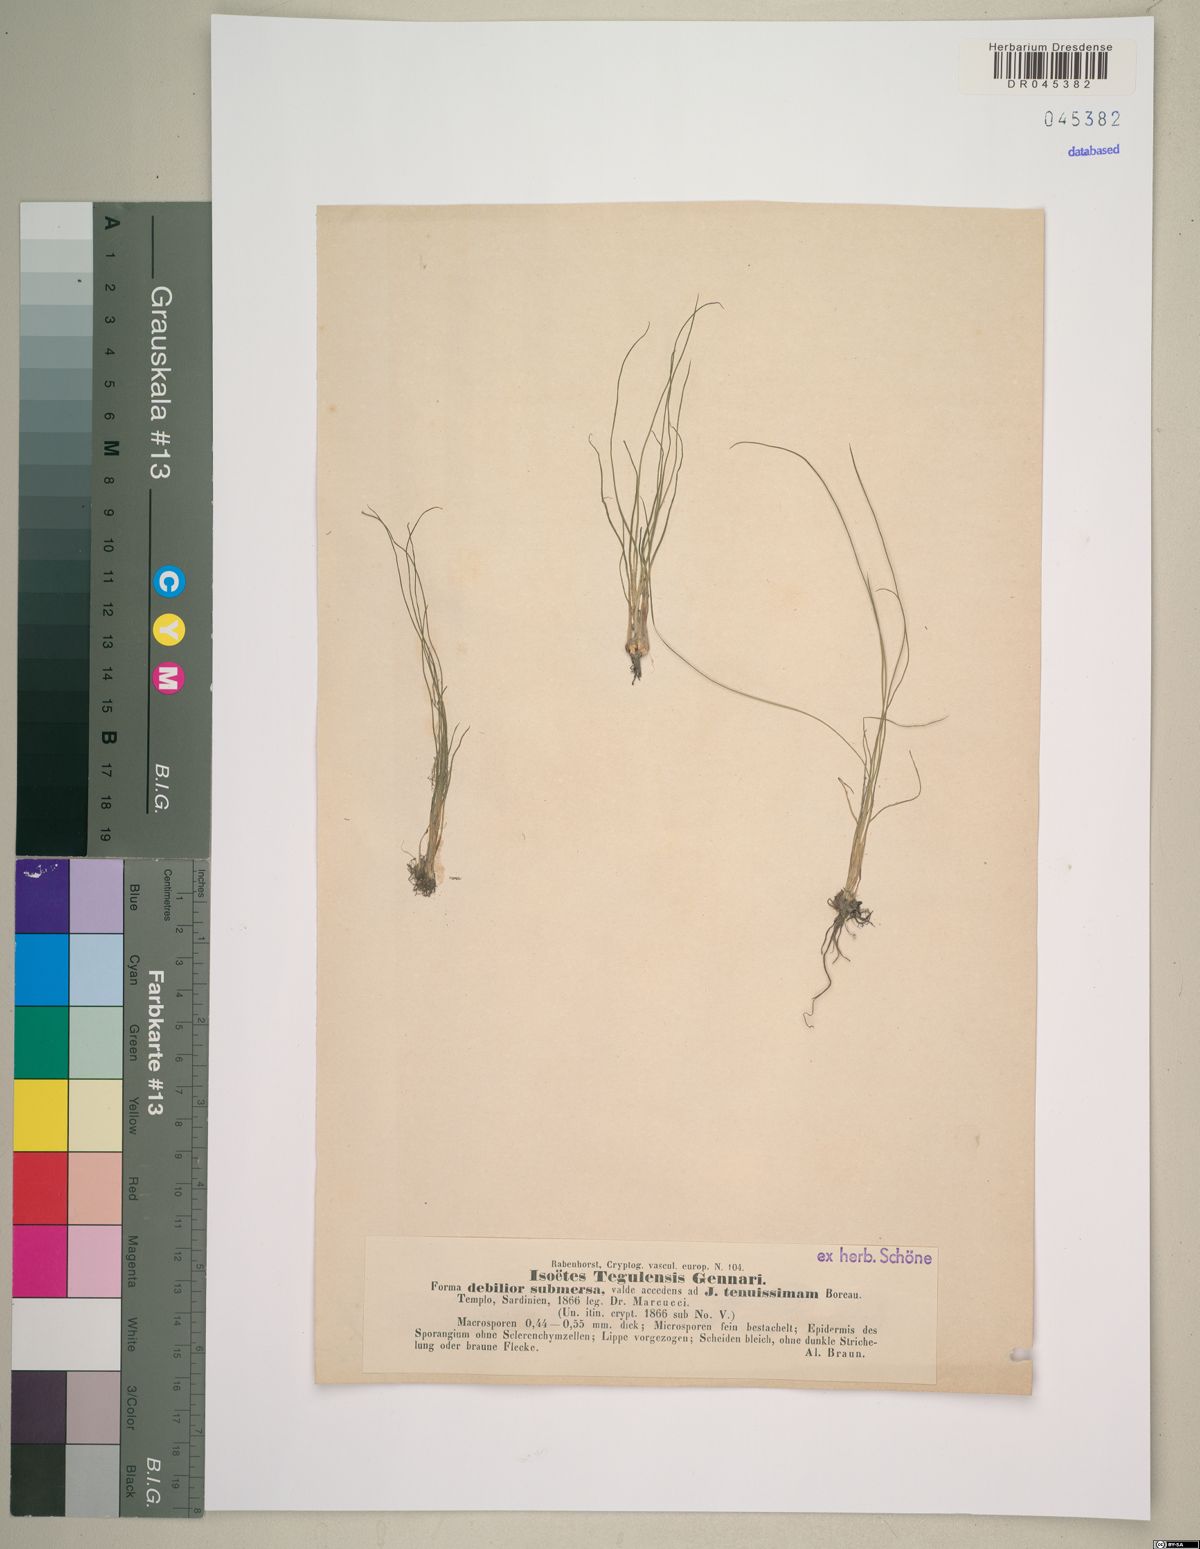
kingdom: Plantae
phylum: Tracheophyta
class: Lycopodiopsida
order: Isoetales
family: Isoetaceae
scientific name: Isoetaceae
